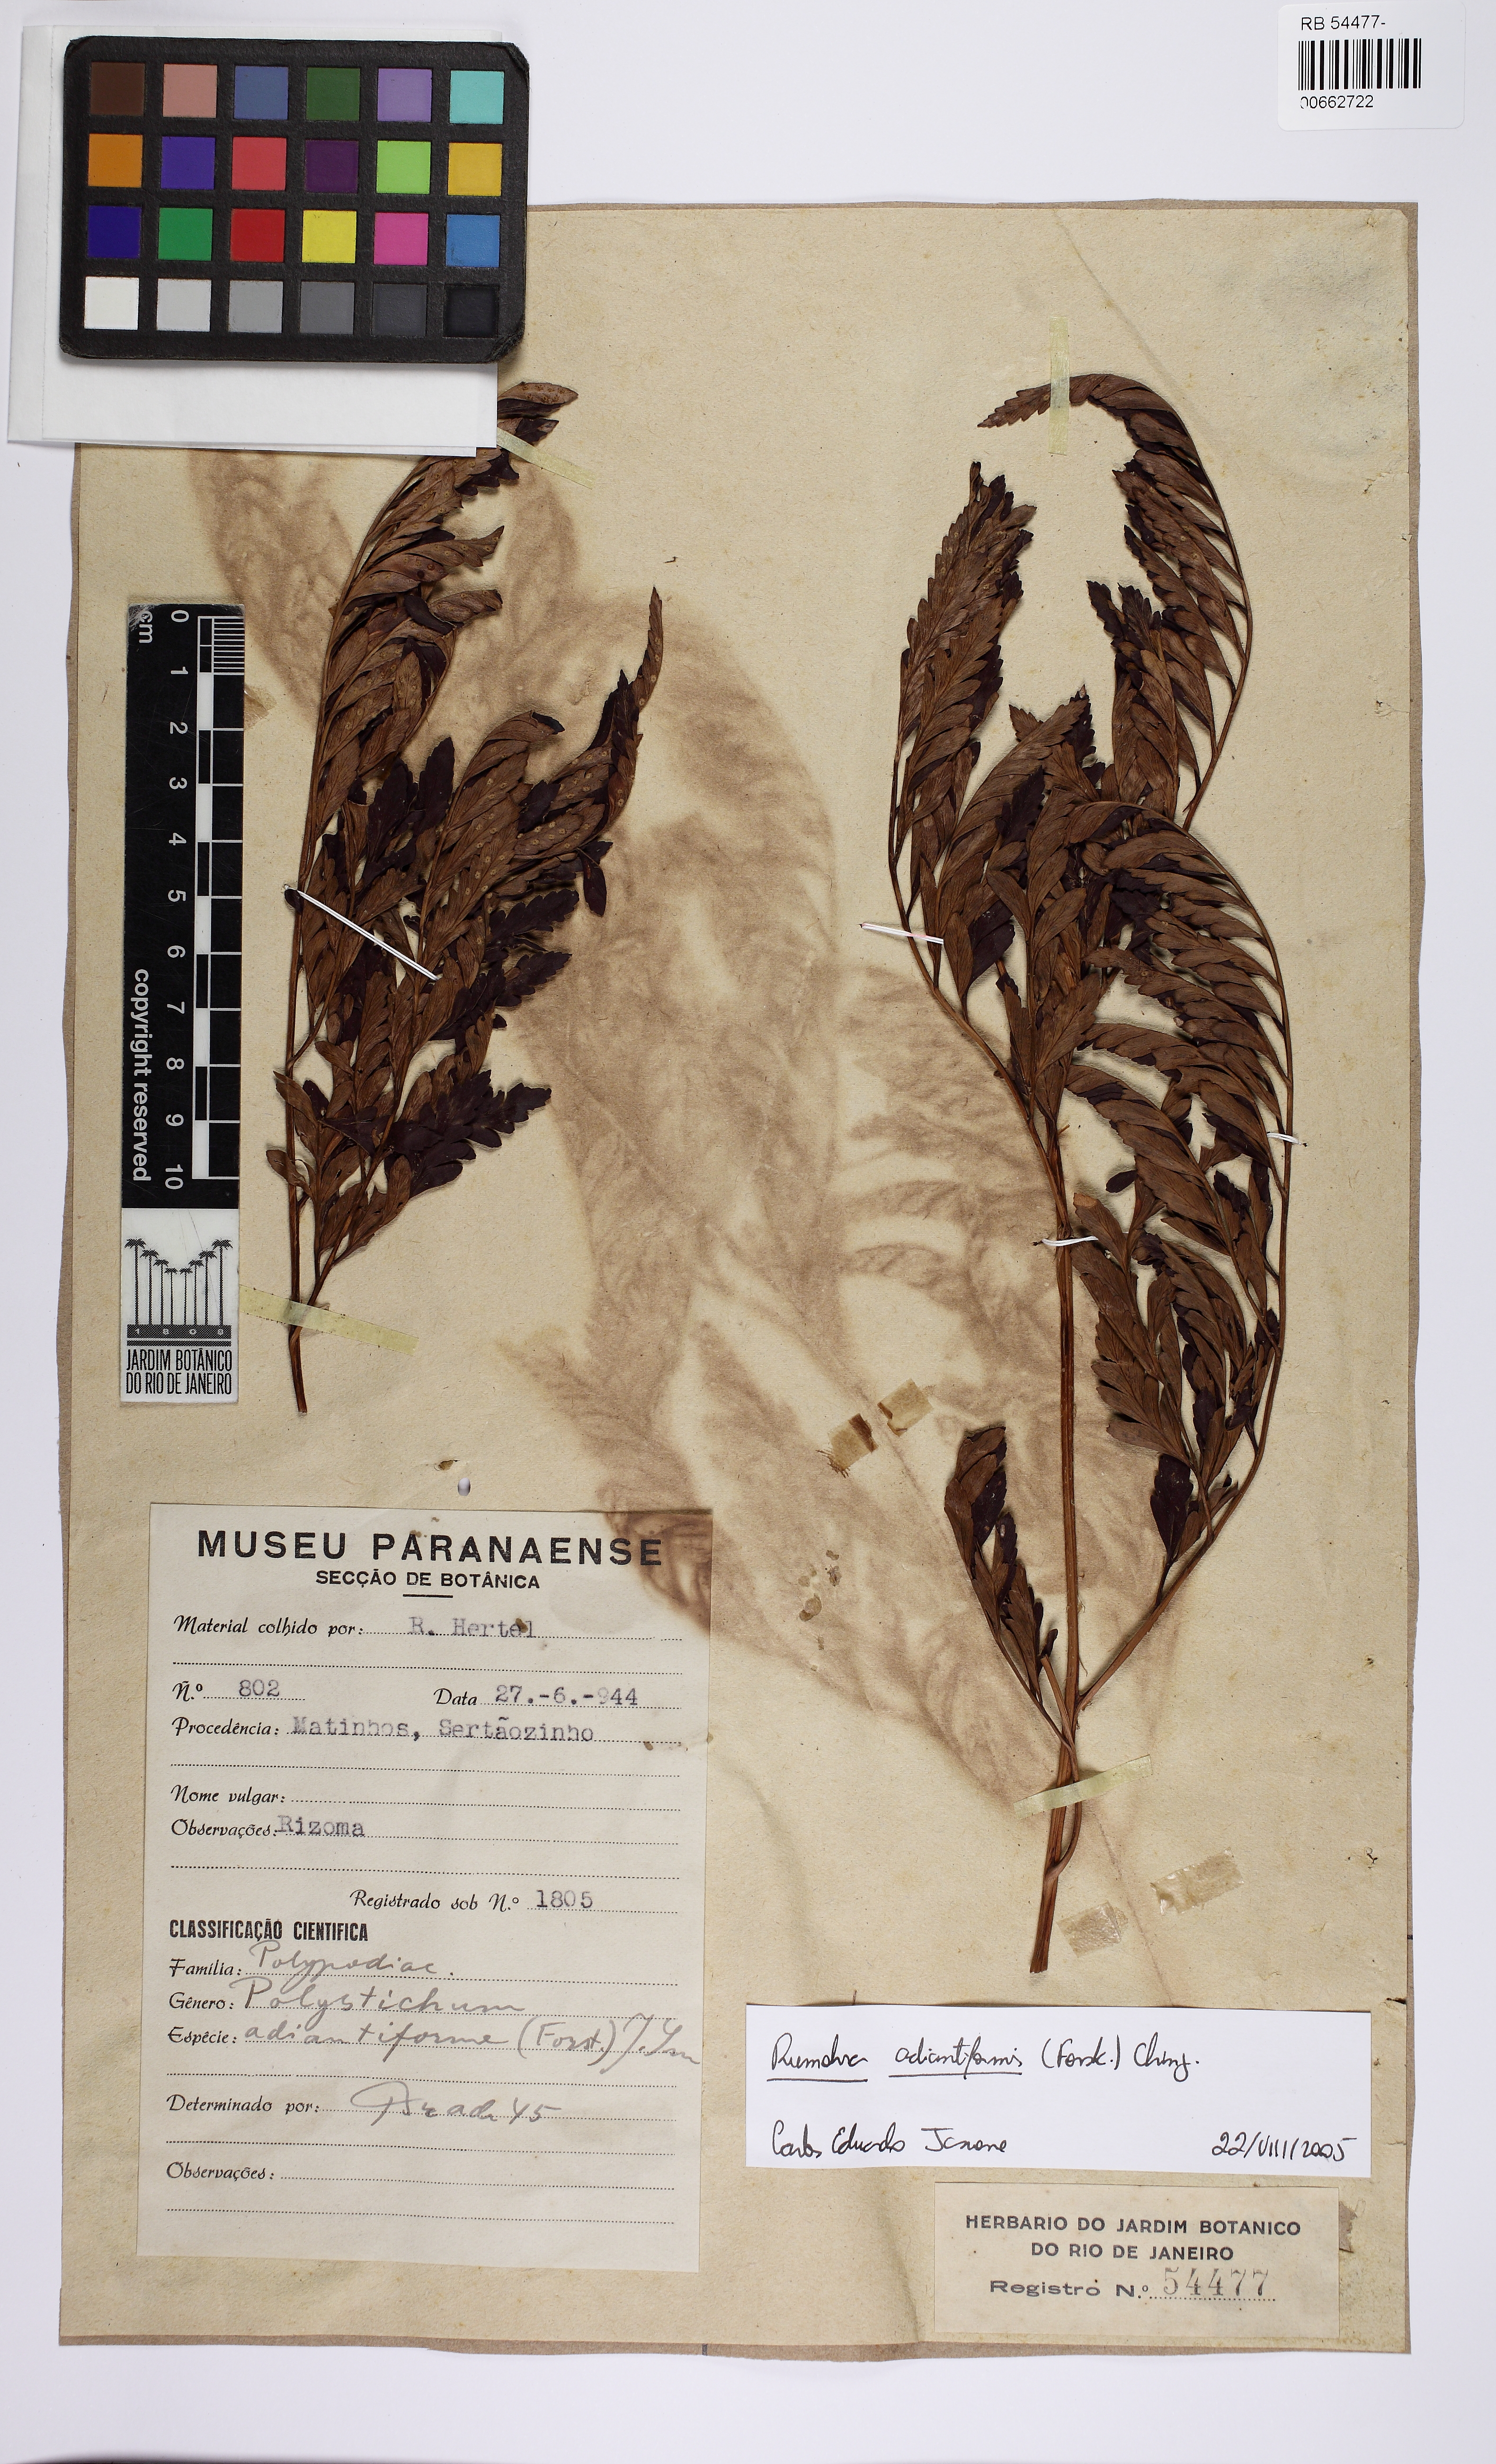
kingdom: Plantae
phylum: Tracheophyta
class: Polypodiopsida
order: Polypodiales
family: Dryopteridaceae
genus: Rumohra
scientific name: Rumohra adiantiformis
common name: Leather fern
